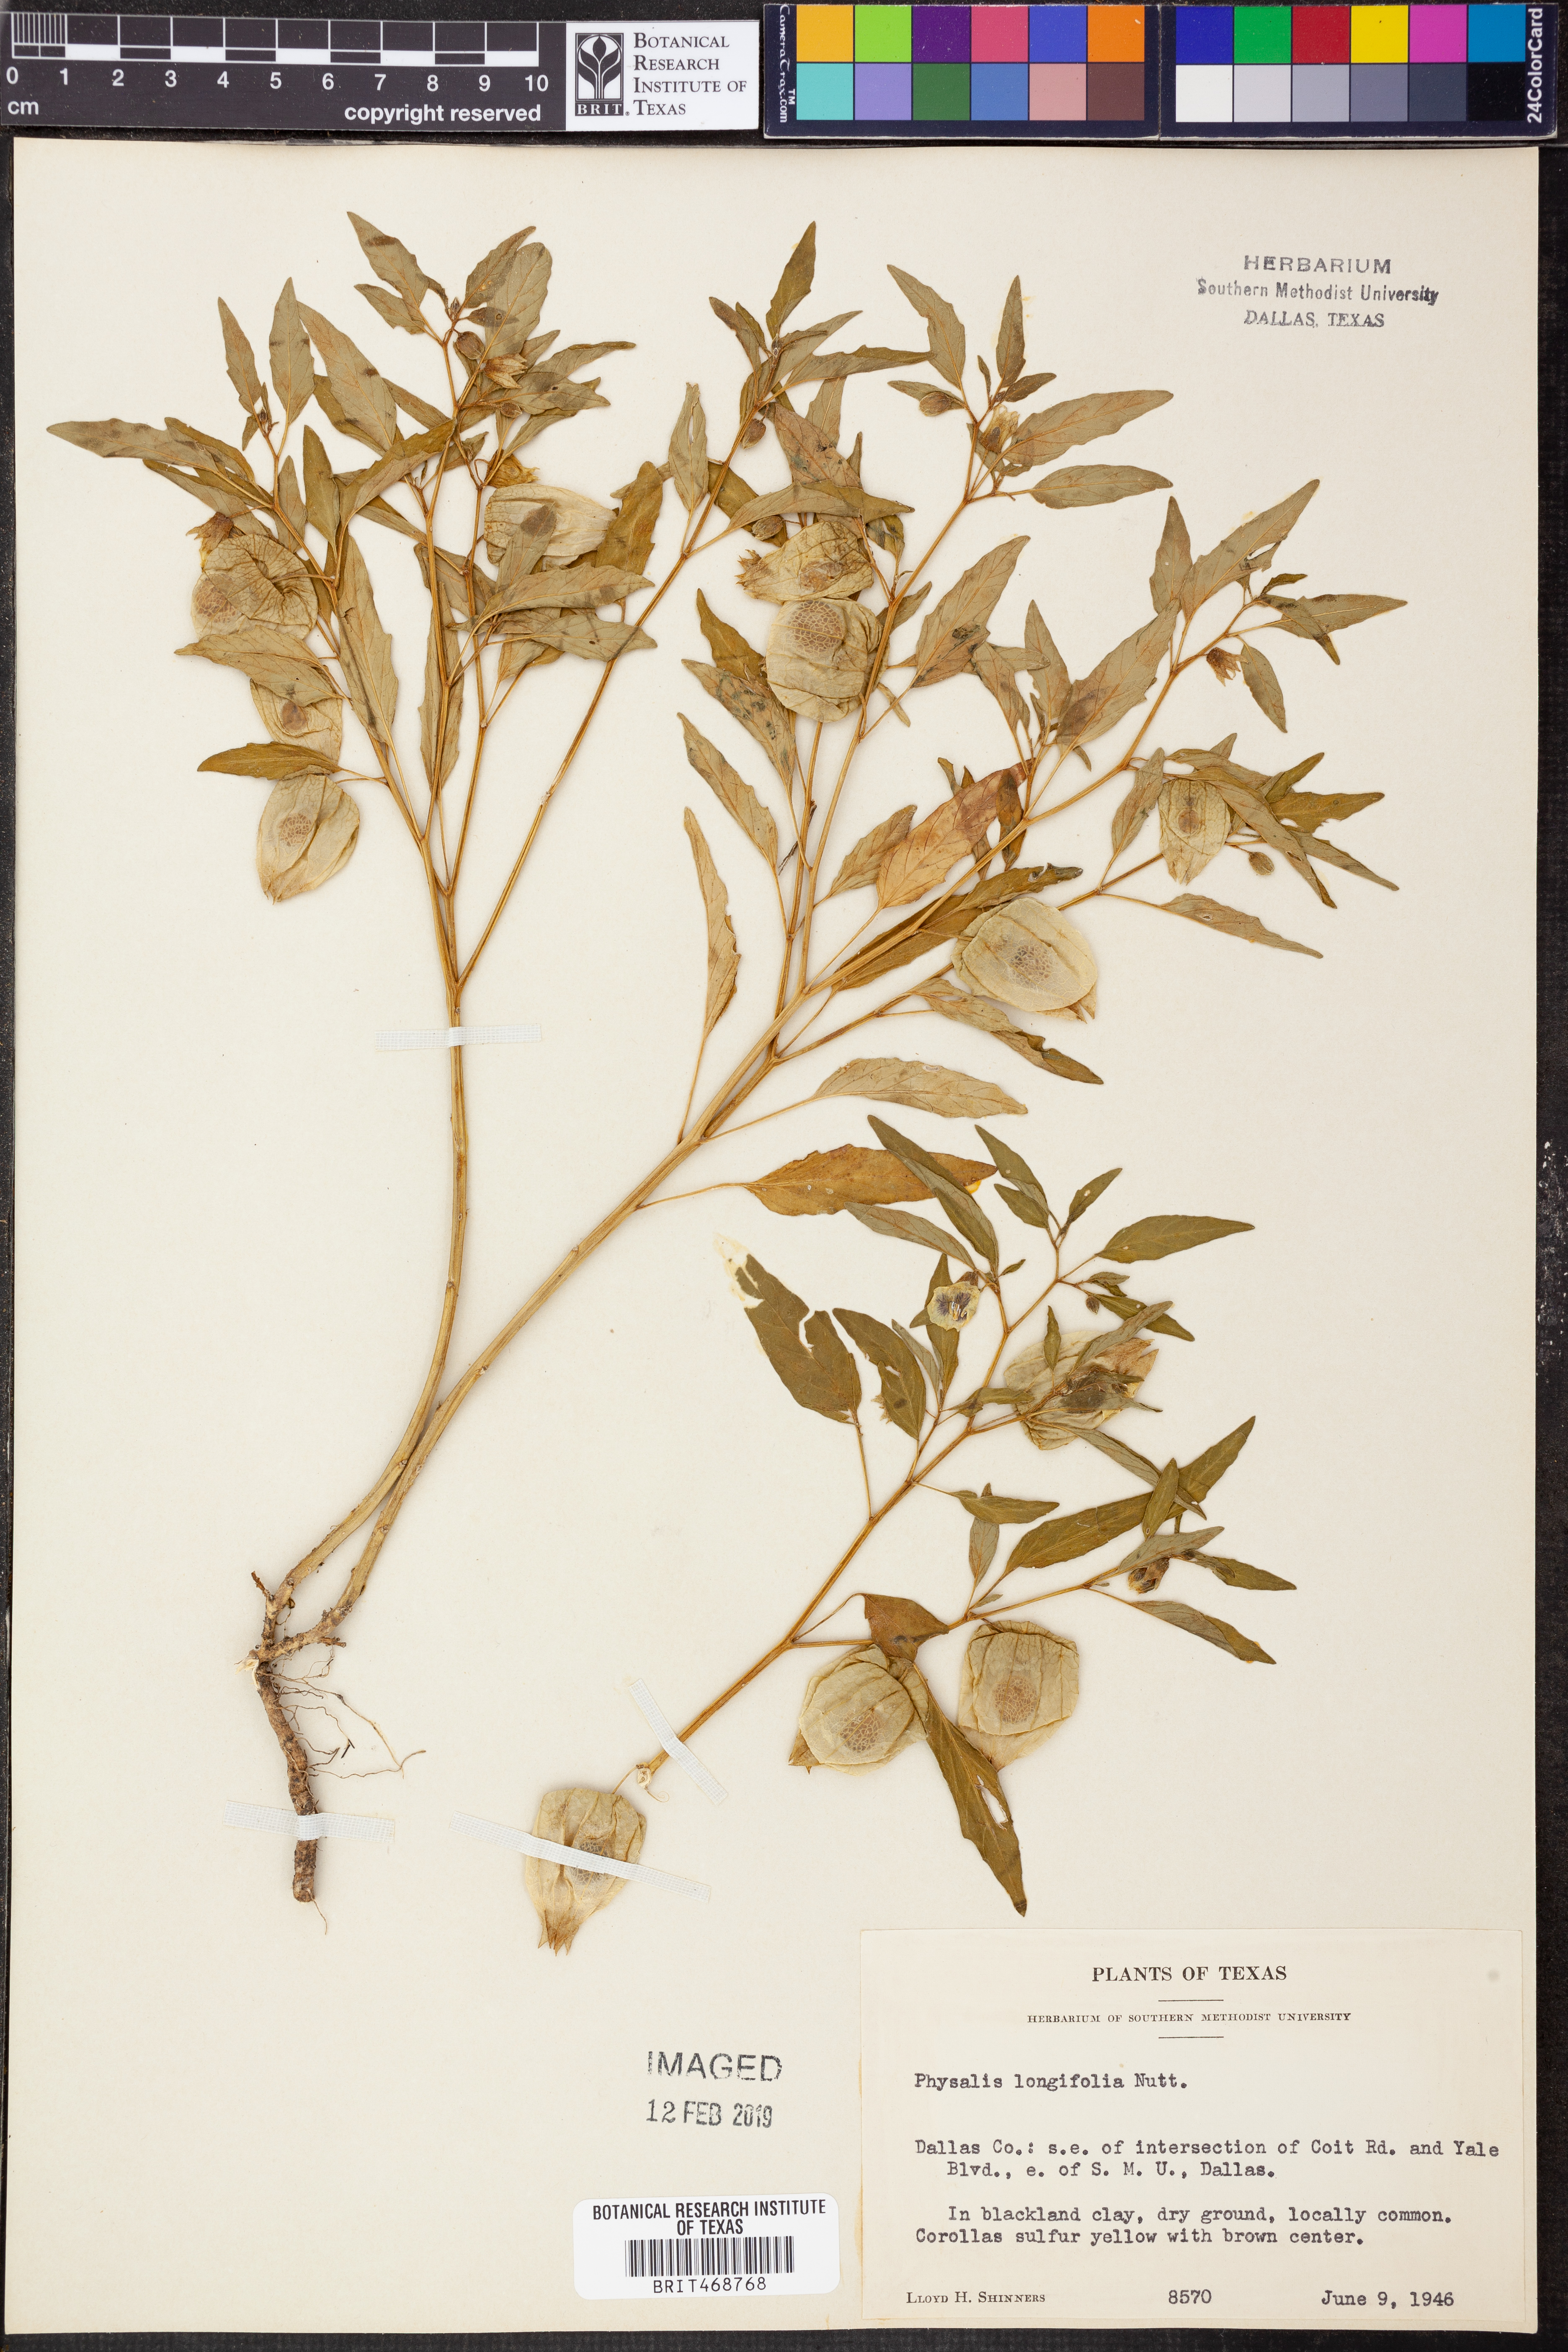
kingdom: Plantae
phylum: Tracheophyta
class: Magnoliopsida
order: Solanales
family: Solanaceae
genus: Physalis
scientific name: Physalis longifolia
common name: Common ground-cherry
